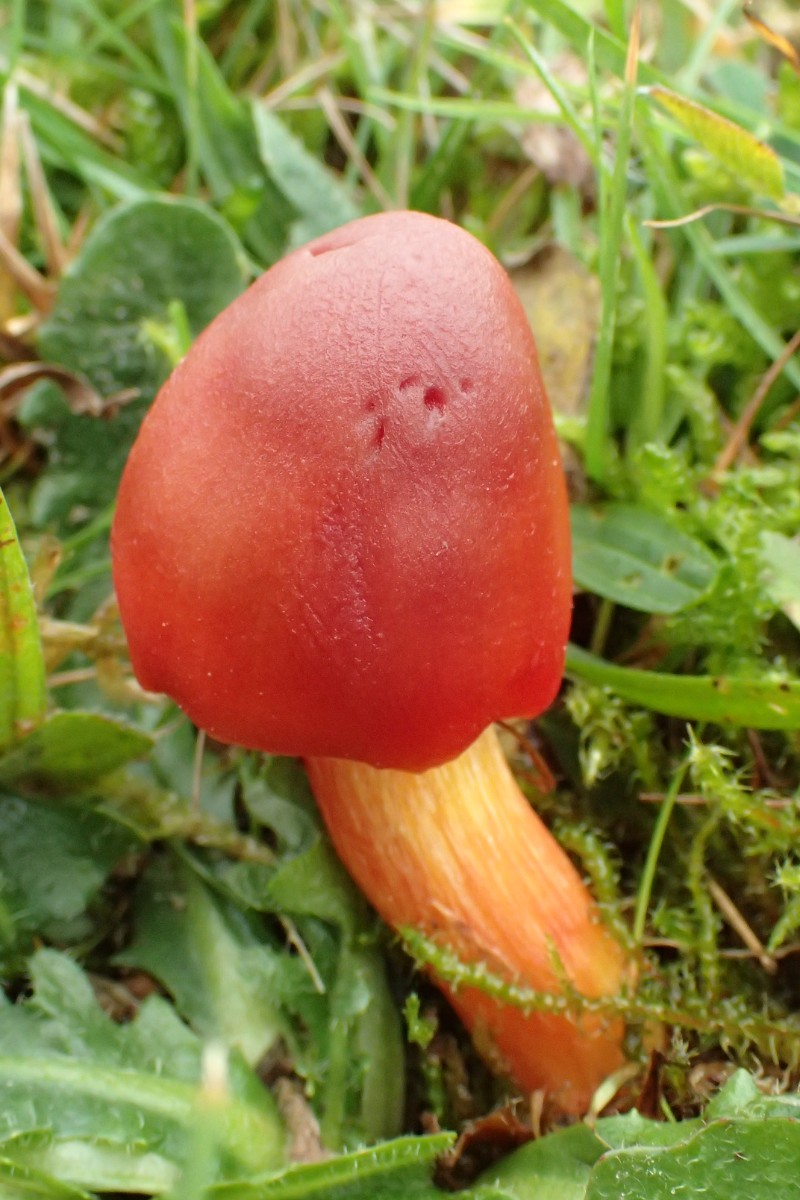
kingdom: Fungi
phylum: Basidiomycota
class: Agaricomycetes
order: Agaricales
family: Hygrophoraceae
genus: Hygrocybe
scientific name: Hygrocybe punicea
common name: skarlagen-vokshat
